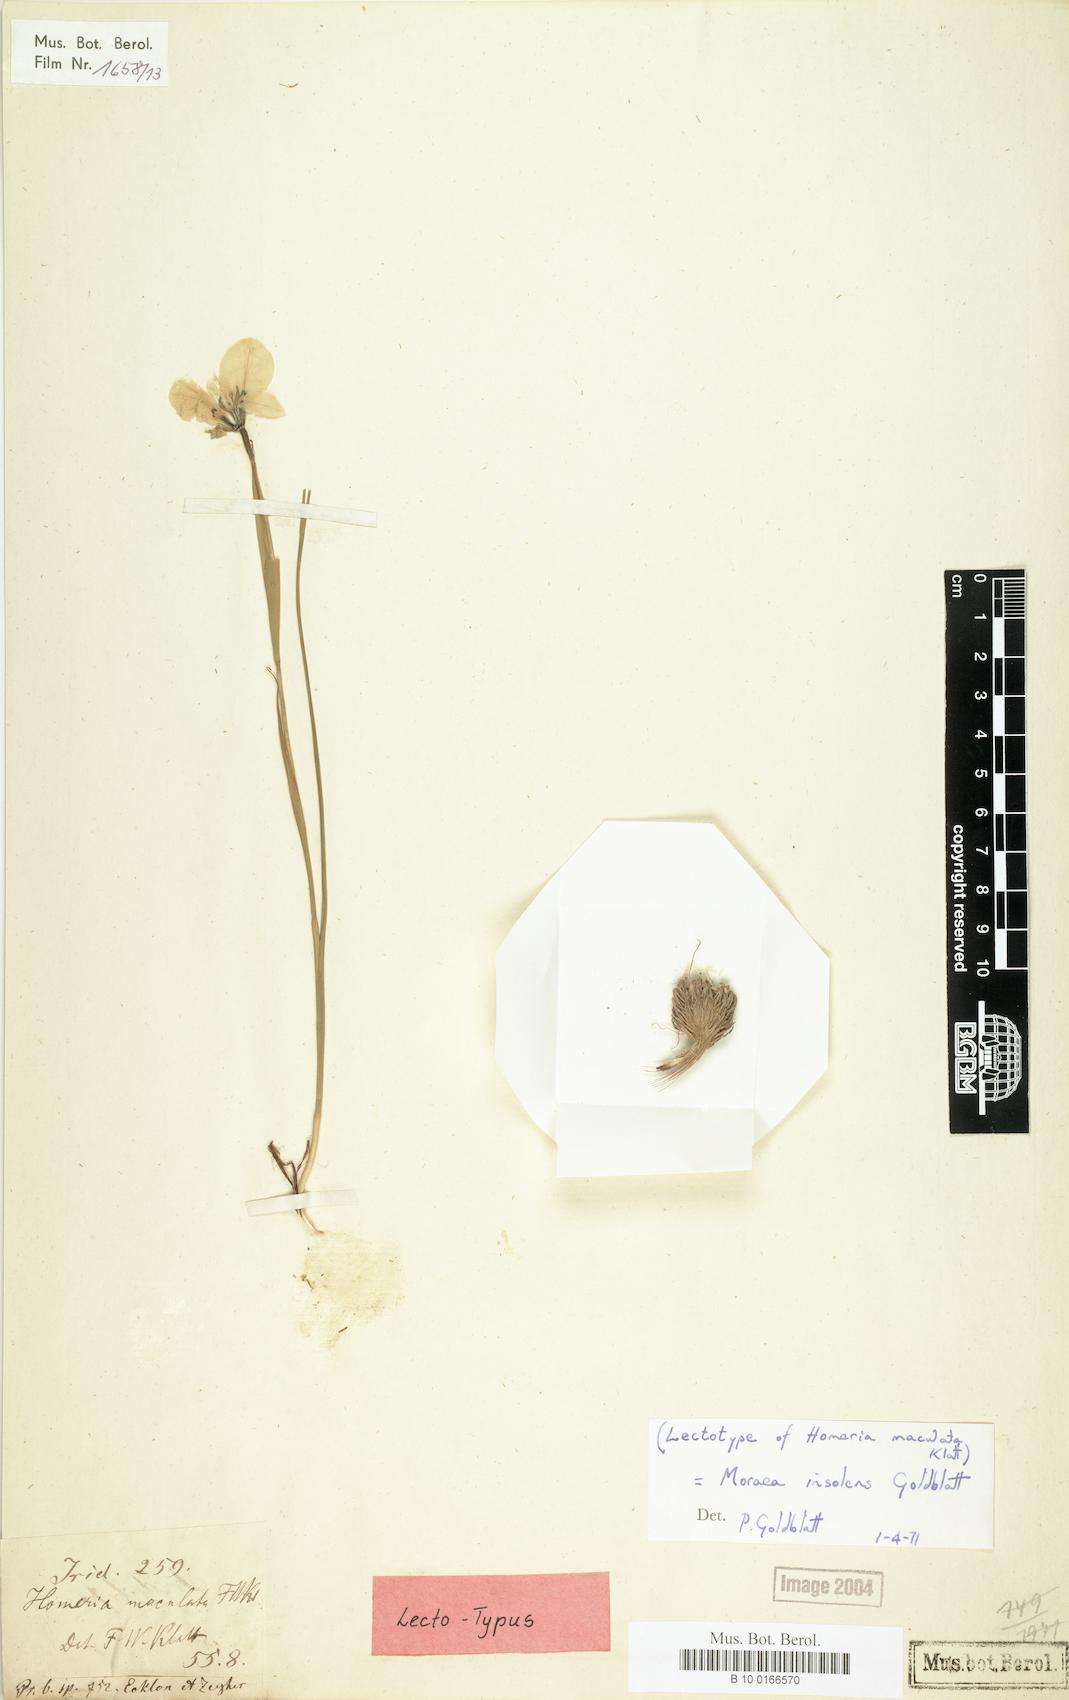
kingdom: Plantae
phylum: Tracheophyta
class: Liliopsida
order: Asparagales
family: Iridaceae
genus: Moraea
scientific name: Moraea insolens
